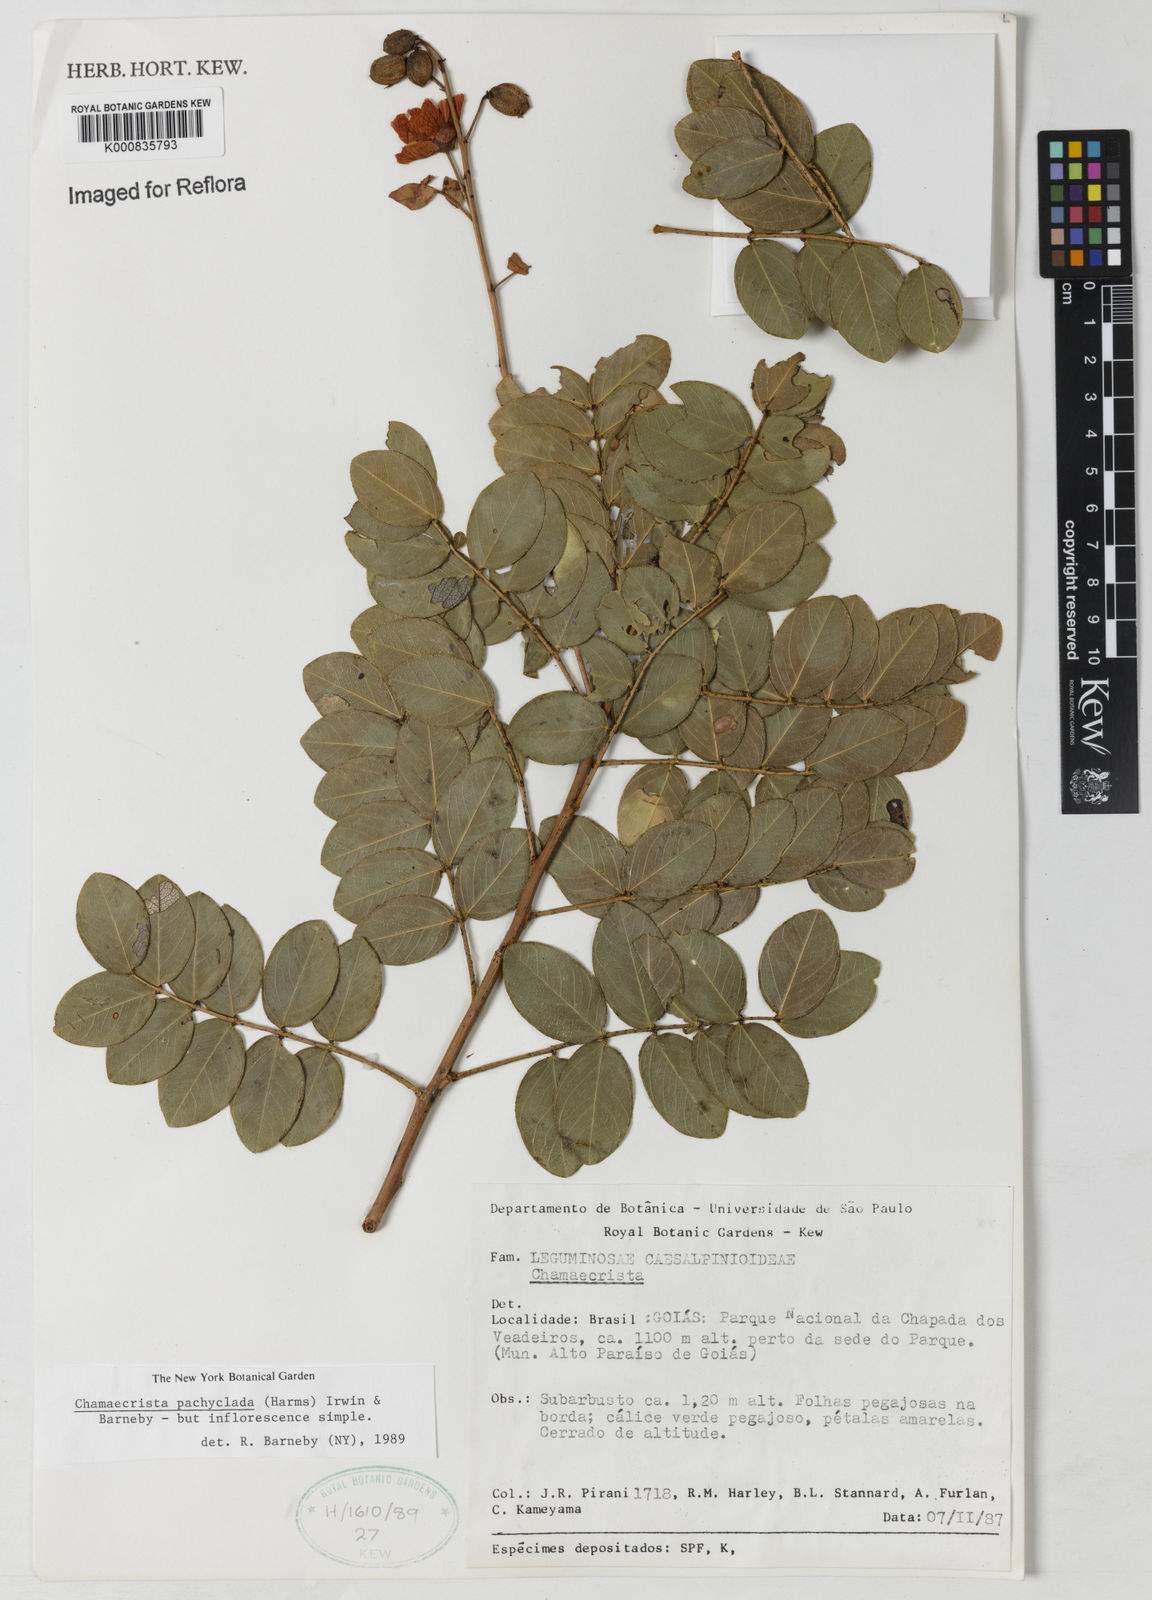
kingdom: Plantae
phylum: Tracheophyta
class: Magnoliopsida
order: Fabales
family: Fabaceae
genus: Chamaecrista
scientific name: Chamaecrista
